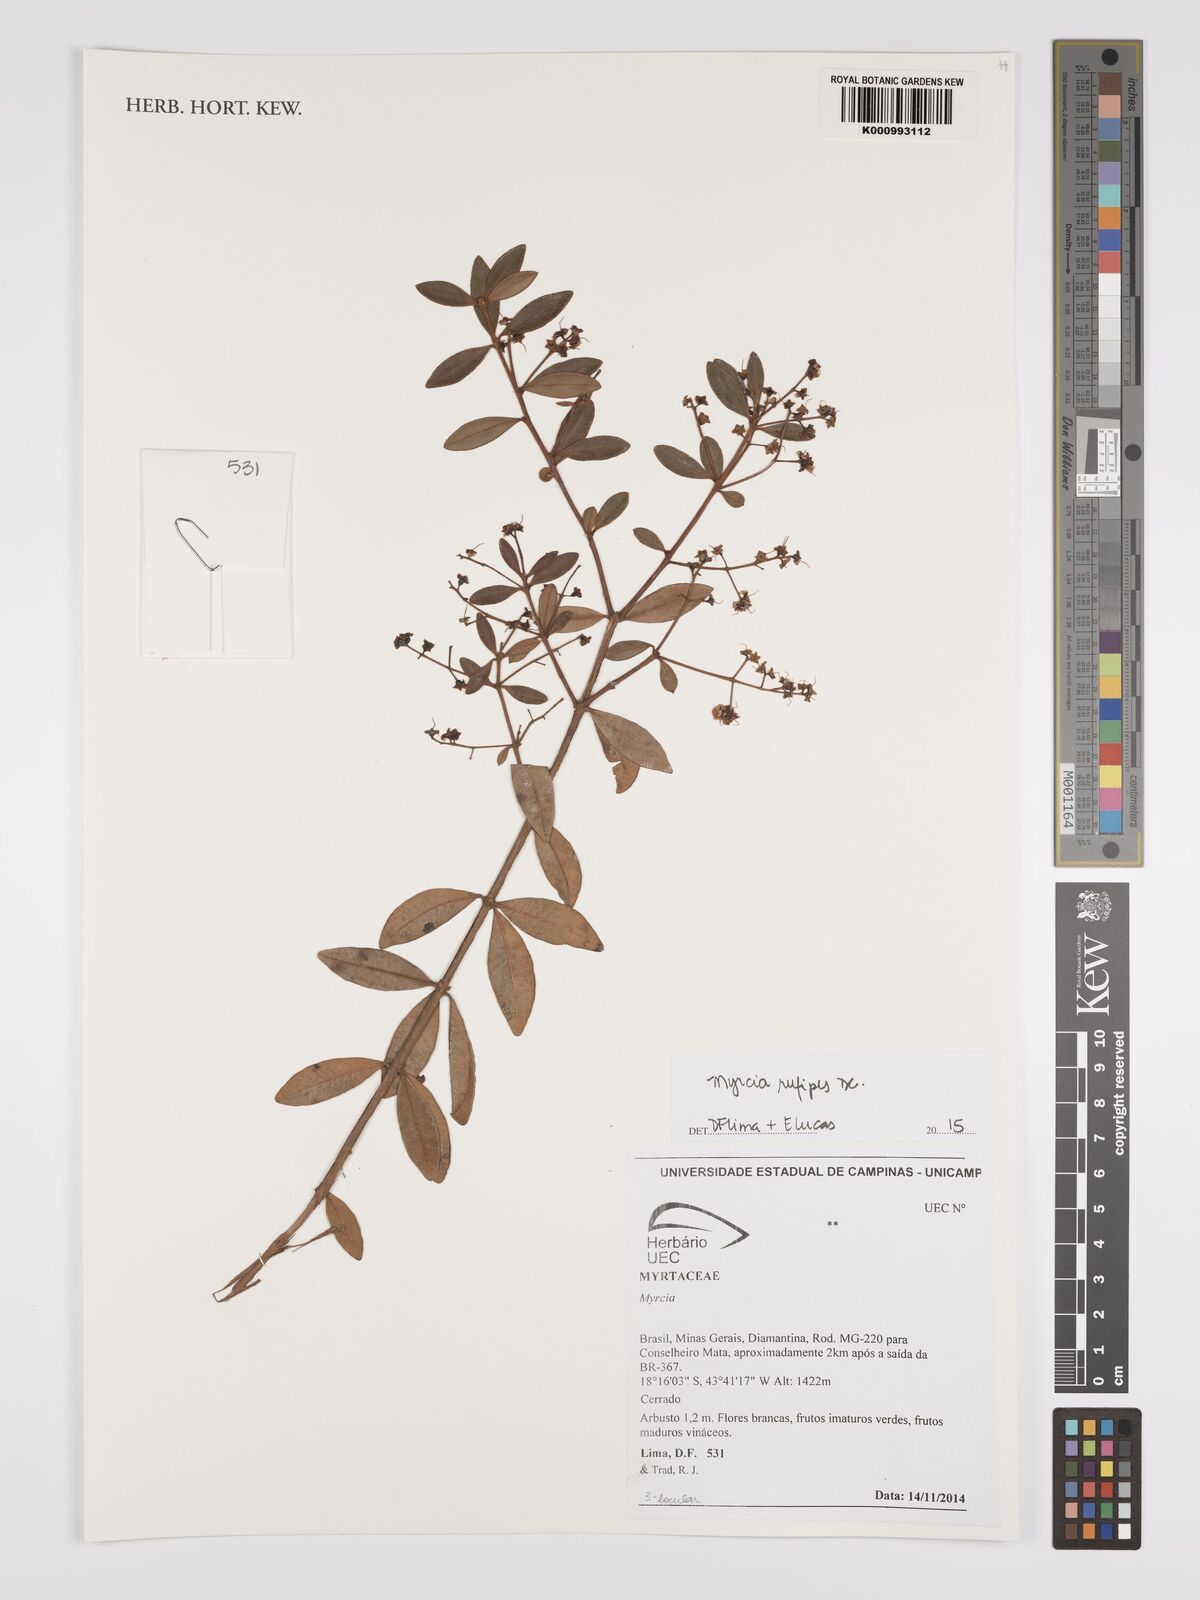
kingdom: Plantae
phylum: Tracheophyta
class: Magnoliopsida
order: Myrtales
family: Myrtaceae
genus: Myrcia
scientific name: Myrcia rufipes
